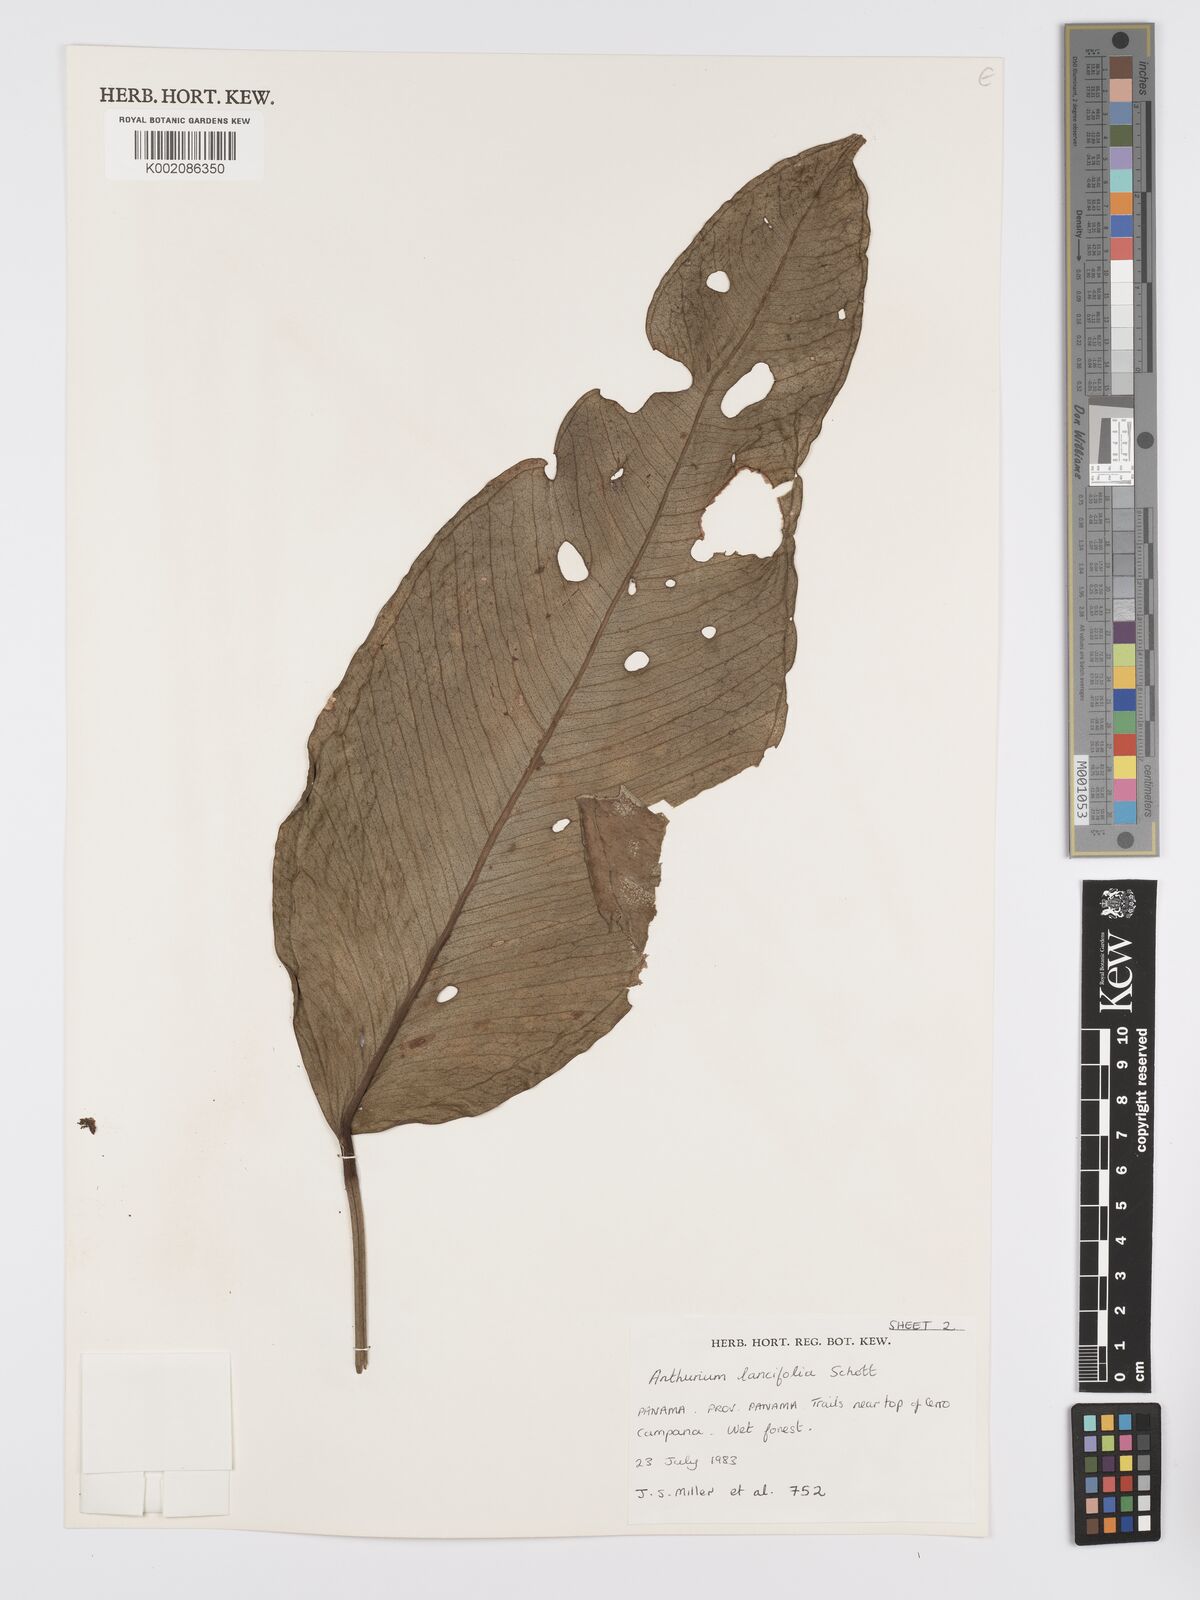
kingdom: Plantae
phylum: Tracheophyta
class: Liliopsida
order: Alismatales
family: Araceae
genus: Anthurium
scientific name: Anthurium lancifolium
